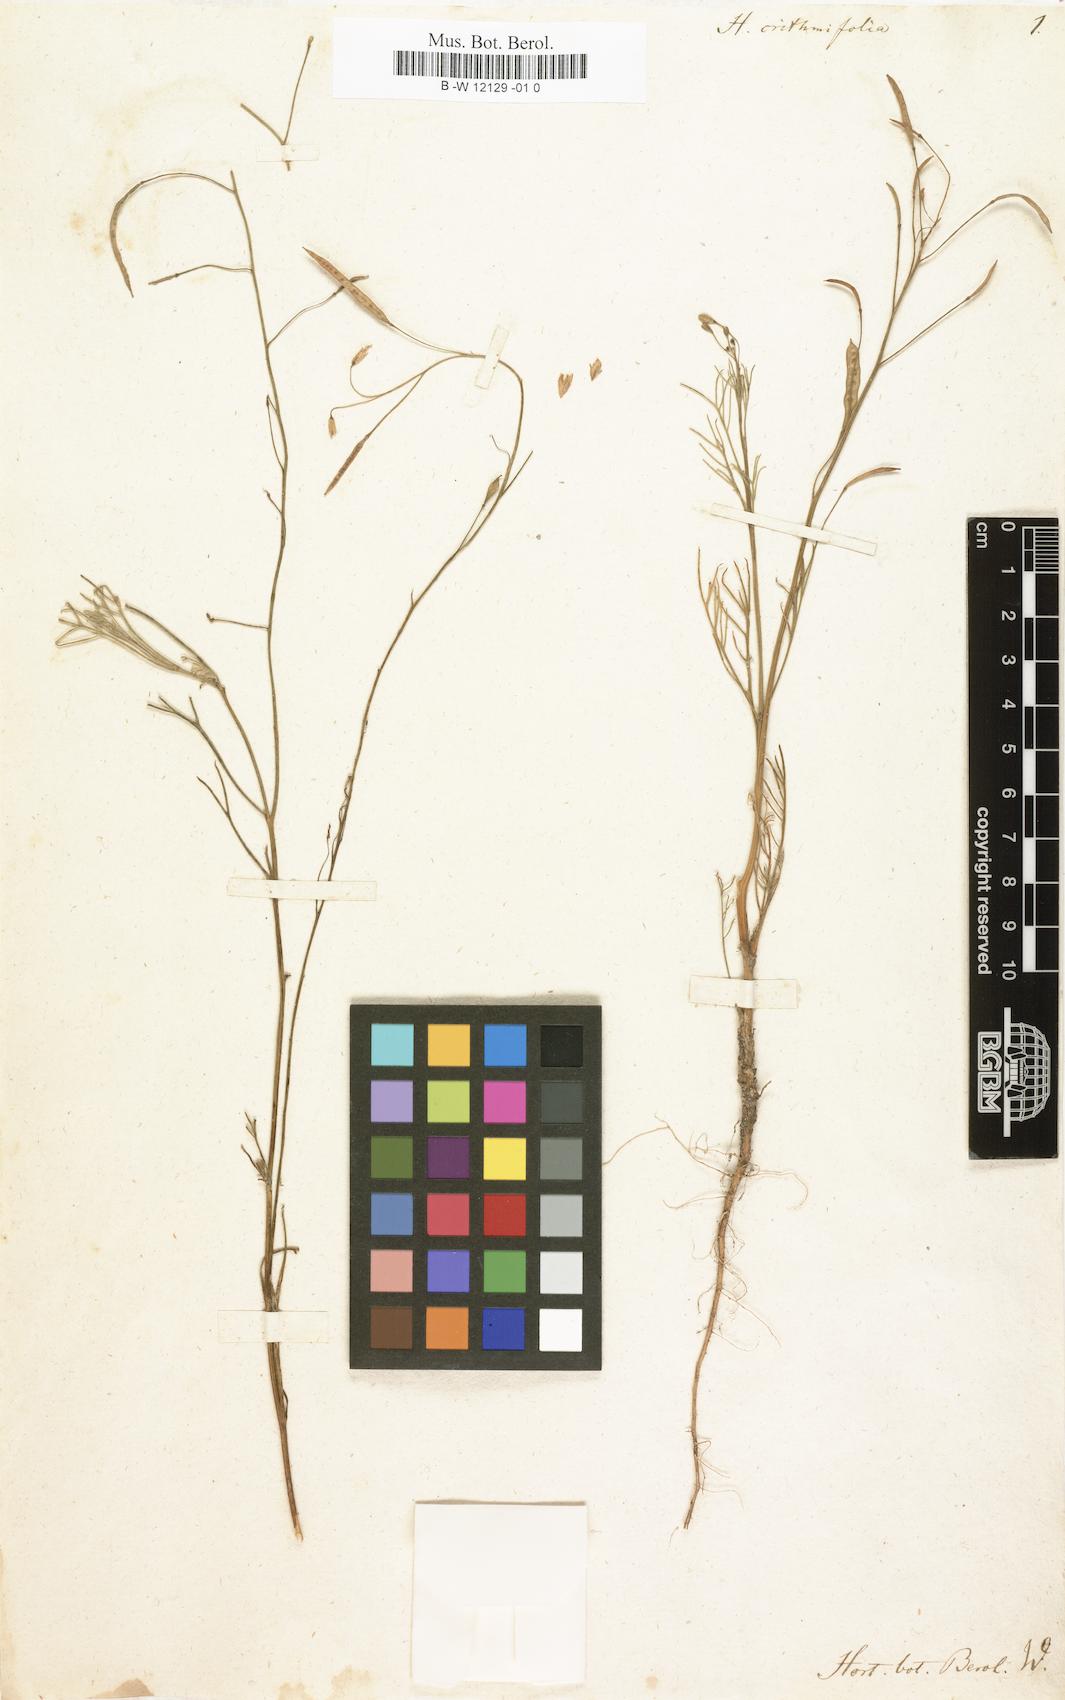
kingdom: Plantae
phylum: Tracheophyta
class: Magnoliopsida
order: Brassicales
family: Brassicaceae
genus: Heliophila
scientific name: Heliophila crithmifolia
